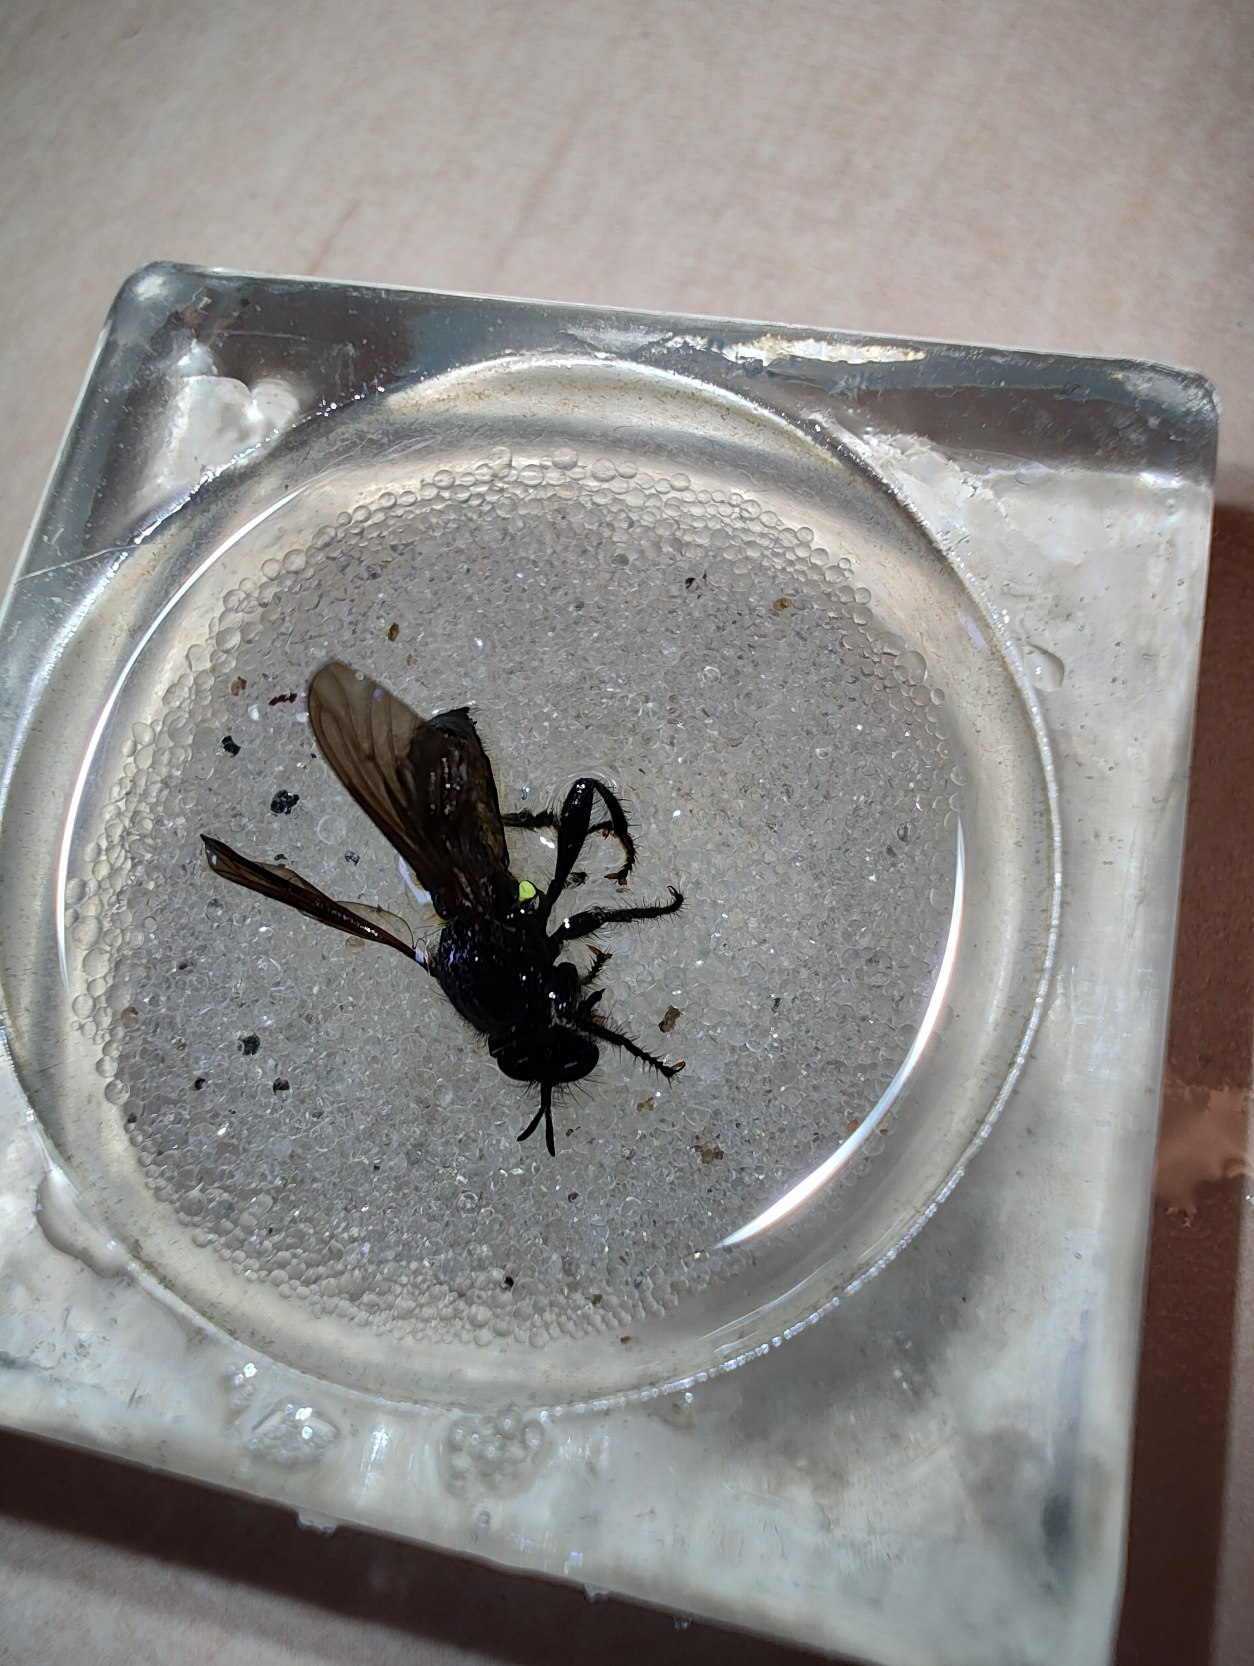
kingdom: Animalia
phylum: Arthropoda
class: Insecta
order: Diptera
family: Asilidae
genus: Choerades
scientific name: Choerades
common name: Trærovfluer
